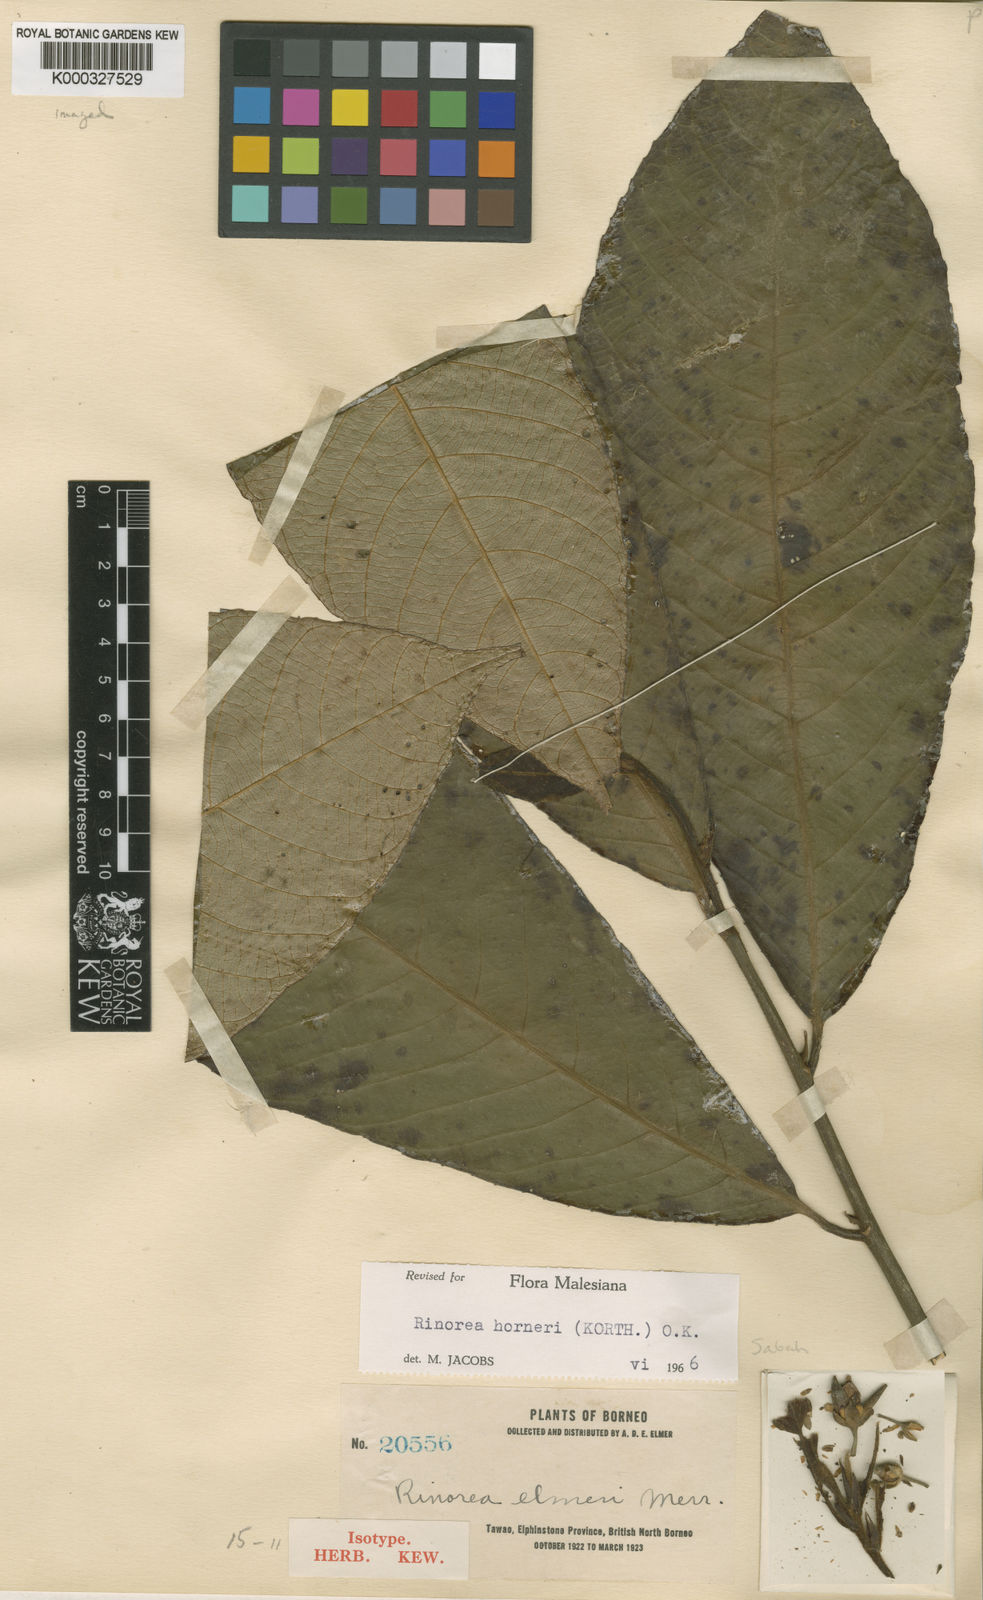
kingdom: Plantae
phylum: Tracheophyta
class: Magnoliopsida
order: Malpighiales
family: Violaceae
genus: Rinorea
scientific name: Rinorea horneri
